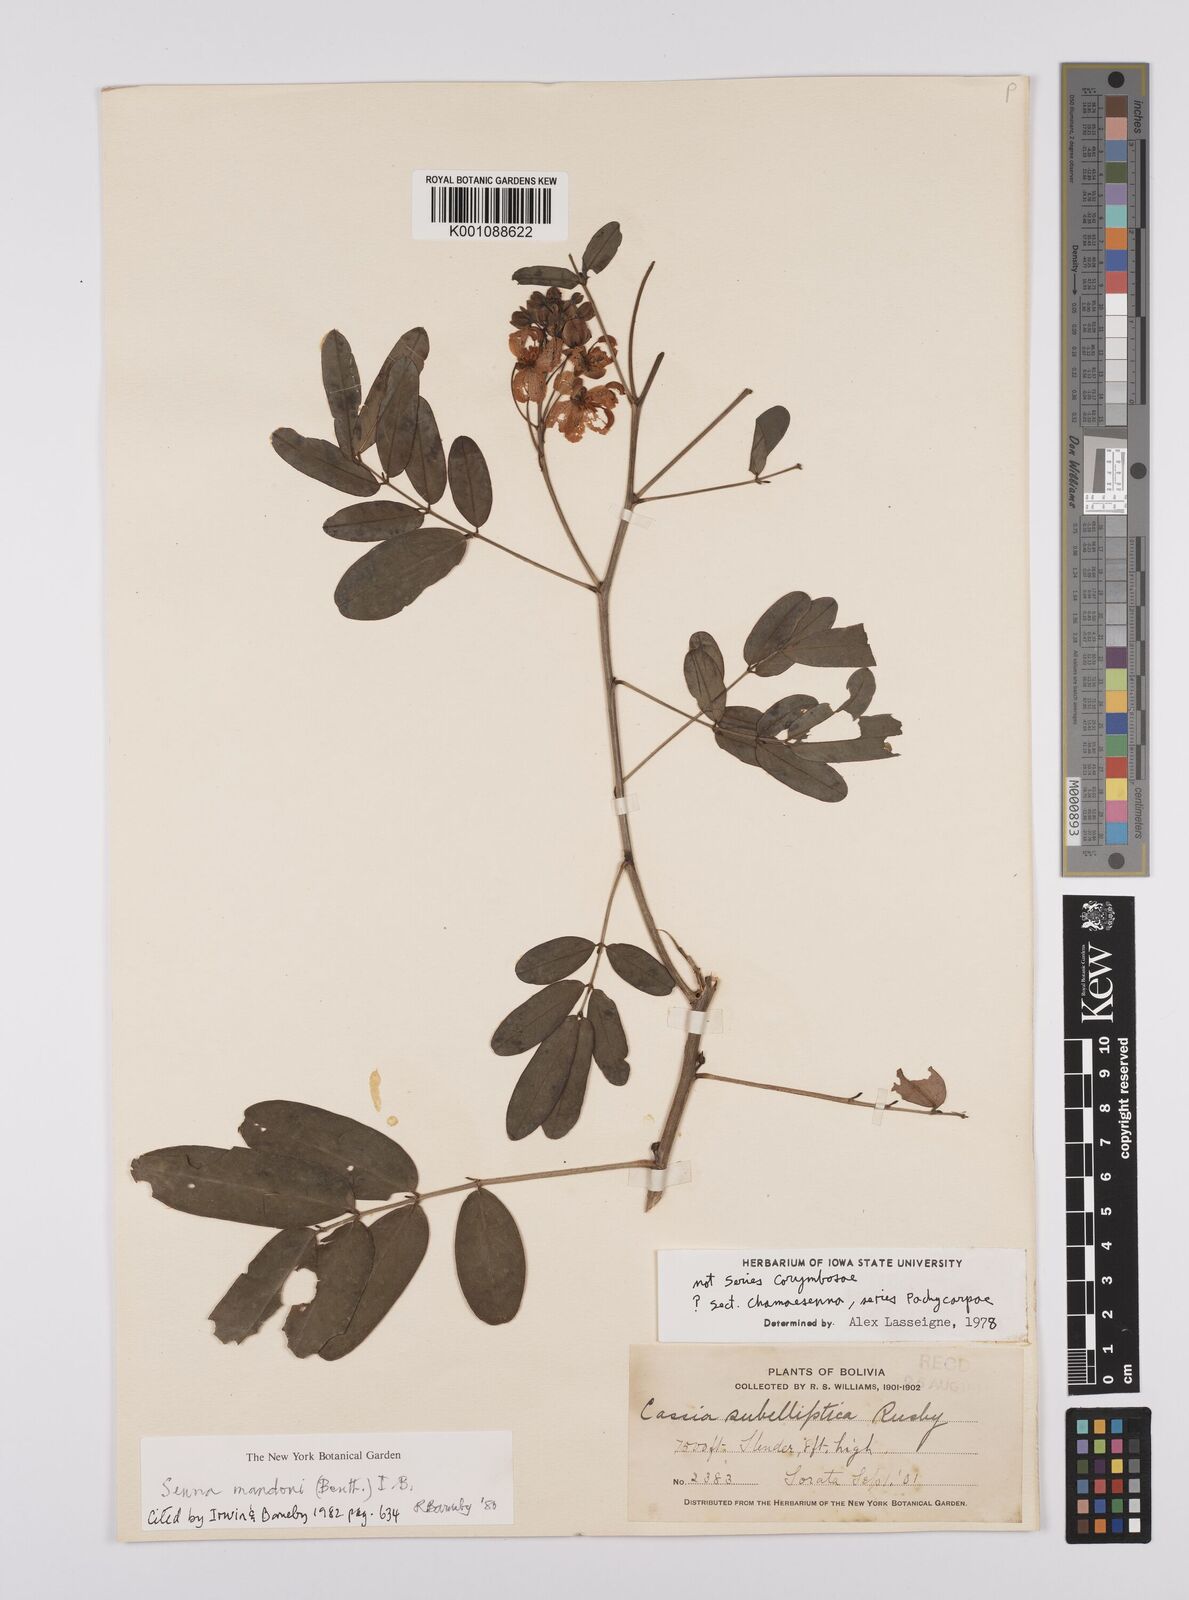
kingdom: Plantae
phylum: Tracheophyta
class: Magnoliopsida
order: Fabales
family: Fabaceae
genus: Senna
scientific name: Senna mandonii
